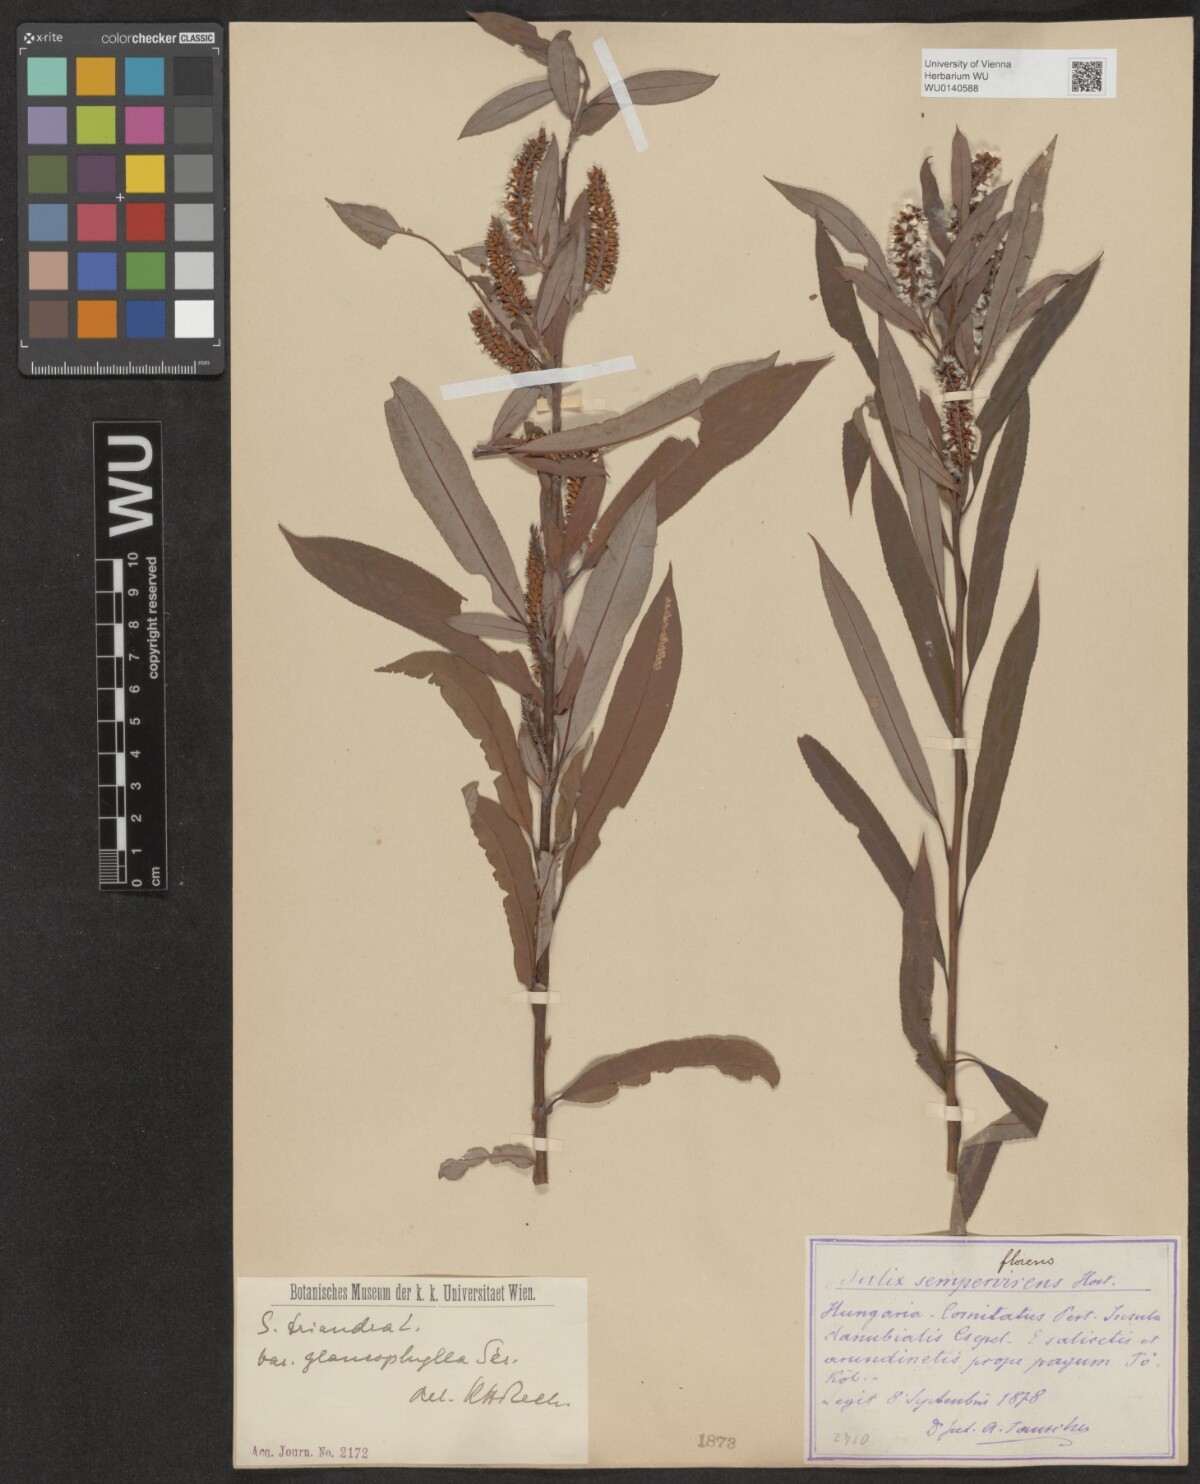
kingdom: Plantae
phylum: Tracheophyta
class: Magnoliopsida
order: Malpighiales
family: Salicaceae
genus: Salix
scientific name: Salix triandra
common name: Almond willow
